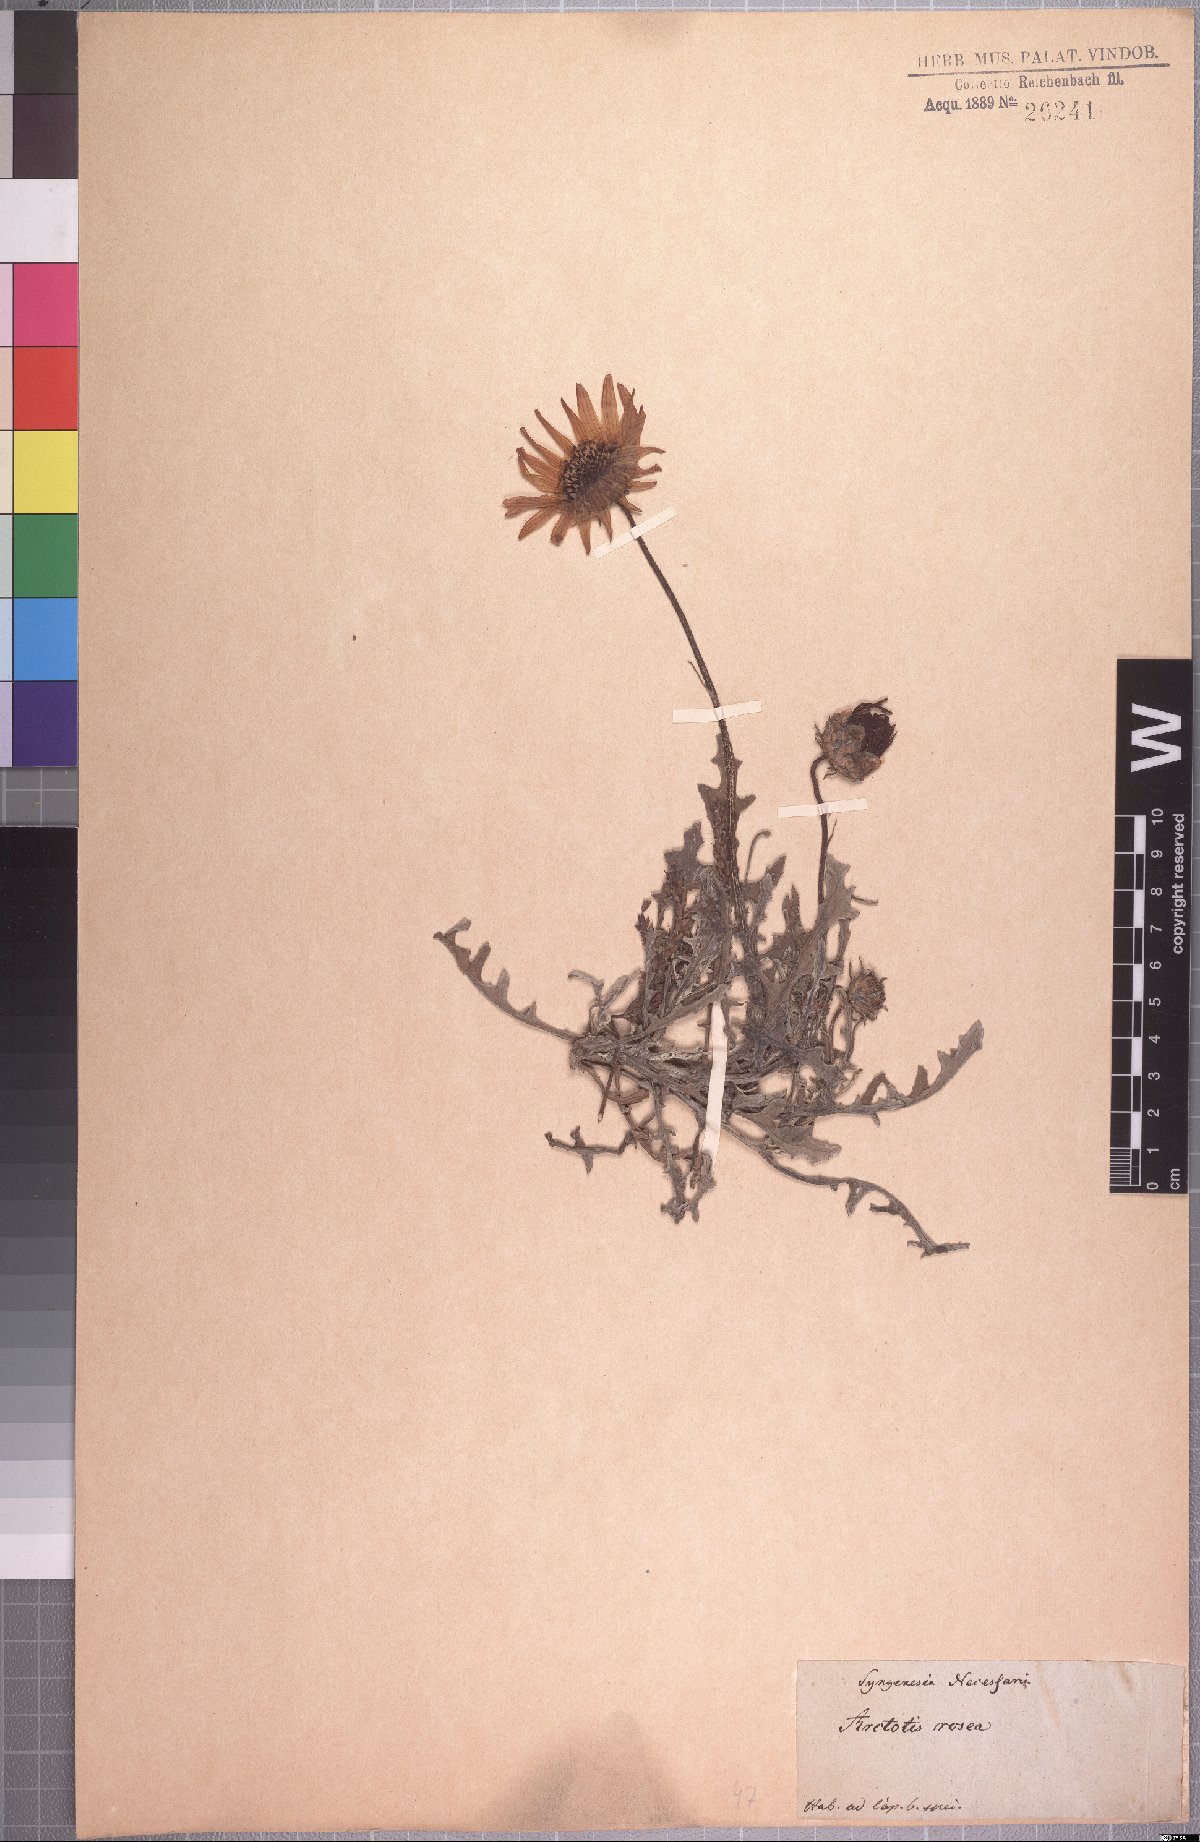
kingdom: Plantae
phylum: Tracheophyta
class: Magnoliopsida
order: Asterales
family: Asteraceae
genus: Arctotis
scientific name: Arctotis rosea
